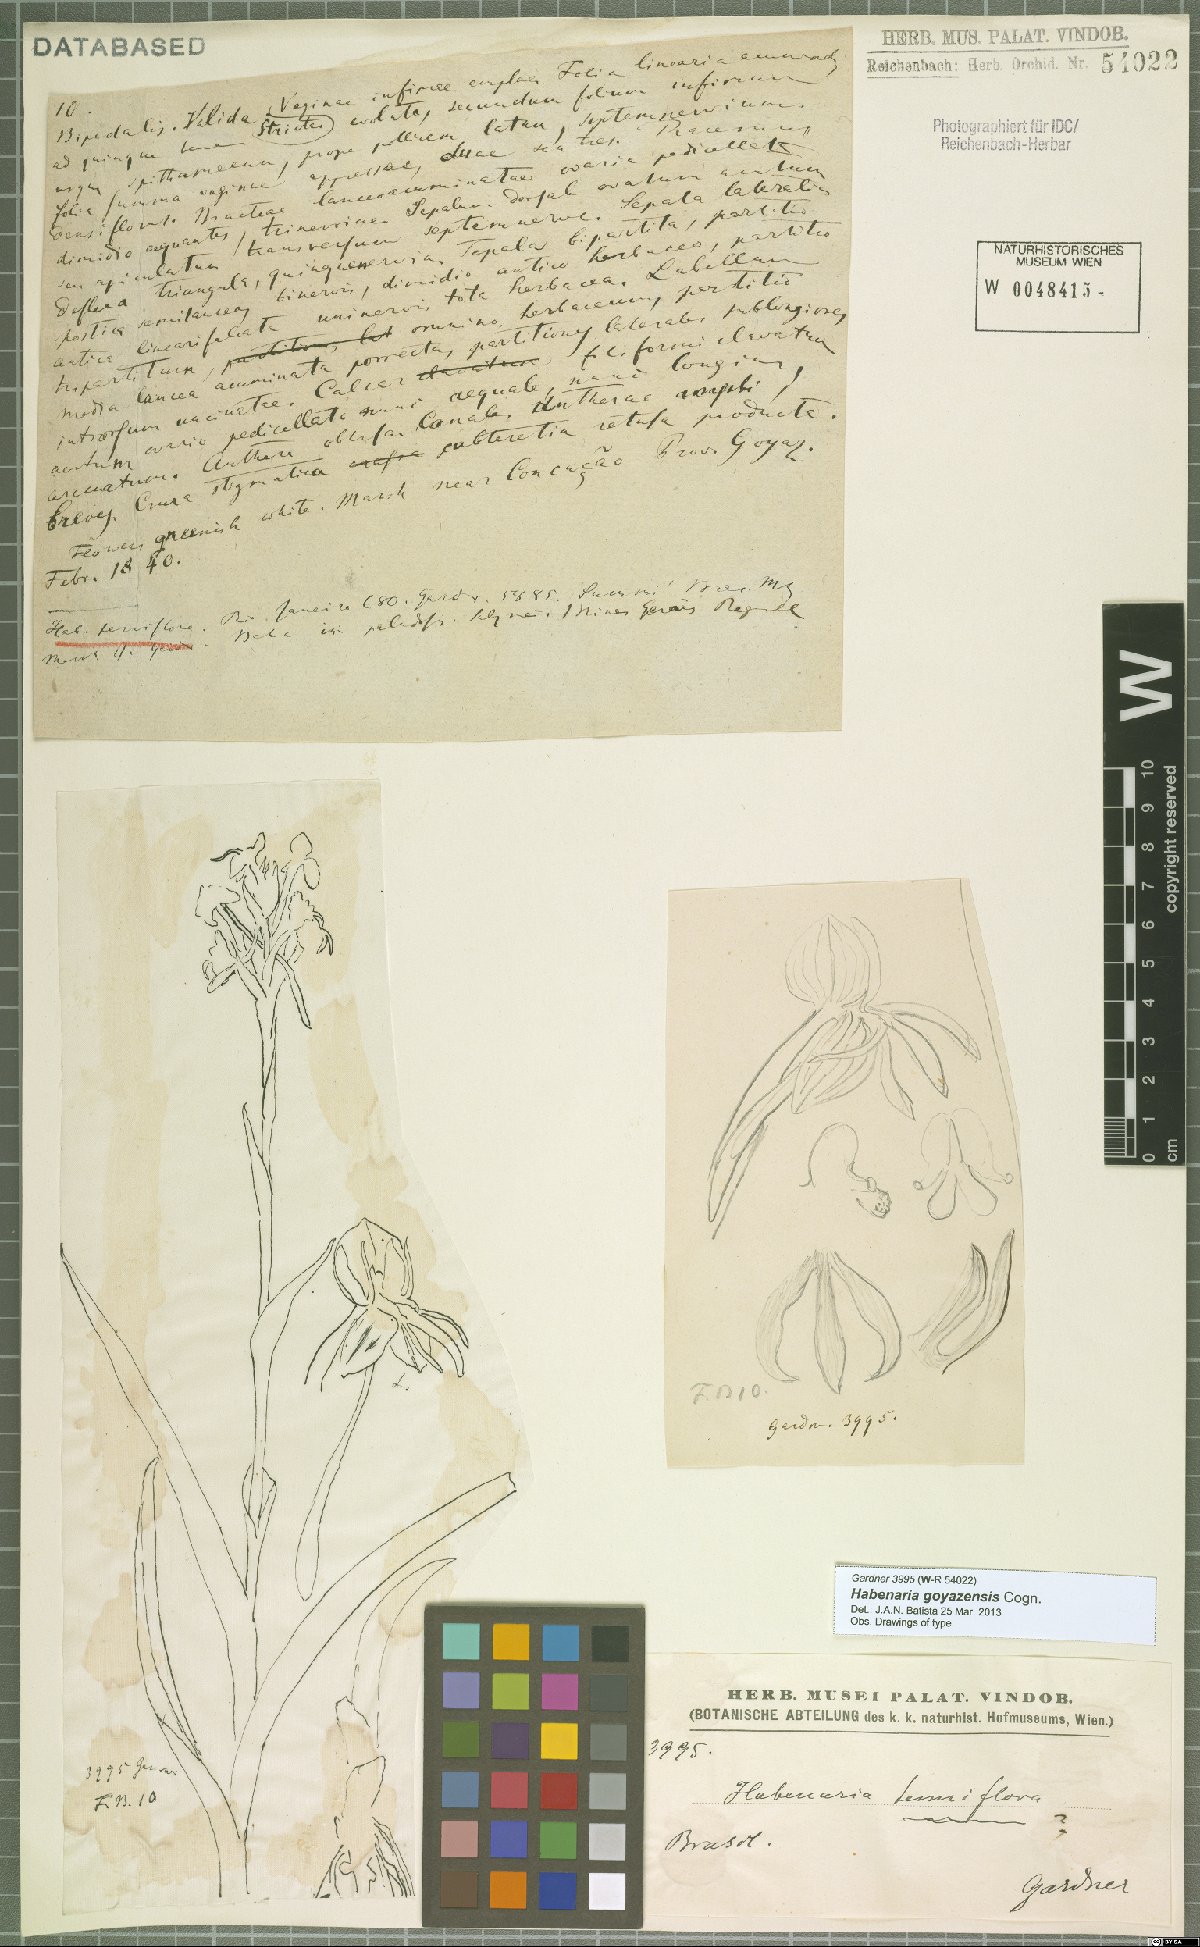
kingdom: Plantae
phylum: Tracheophyta
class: Liliopsida
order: Asparagales
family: Orchidaceae
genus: Habenaria
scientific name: Habenaria goyazensis
